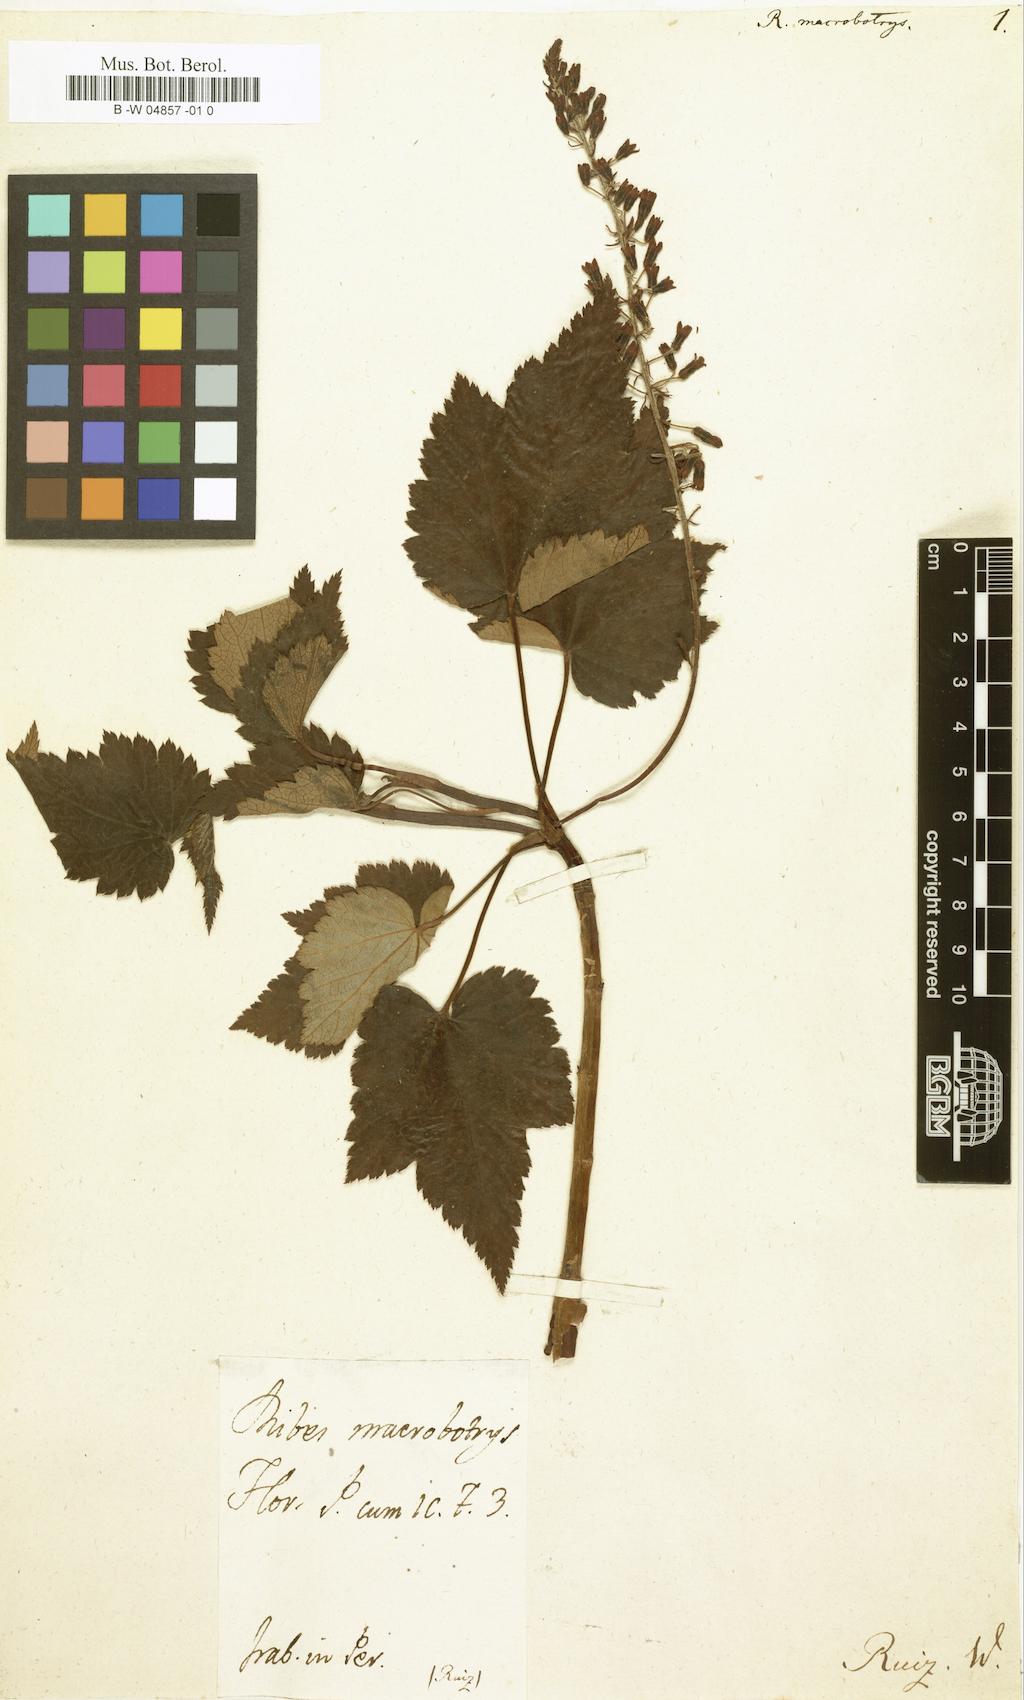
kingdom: Plantae
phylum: Tracheophyta
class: Magnoliopsida
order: Saxifragales
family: Grossulariaceae
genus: Ribes
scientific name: Ribes macrobotrys
